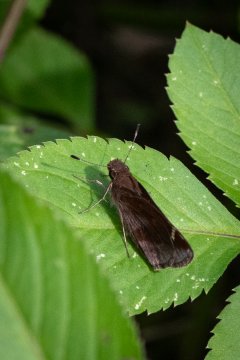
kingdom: Animalia
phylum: Arthropoda
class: Insecta
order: Lepidoptera
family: Hesperiidae
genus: Lerema
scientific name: Lerema accius
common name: Clouded Skipper
